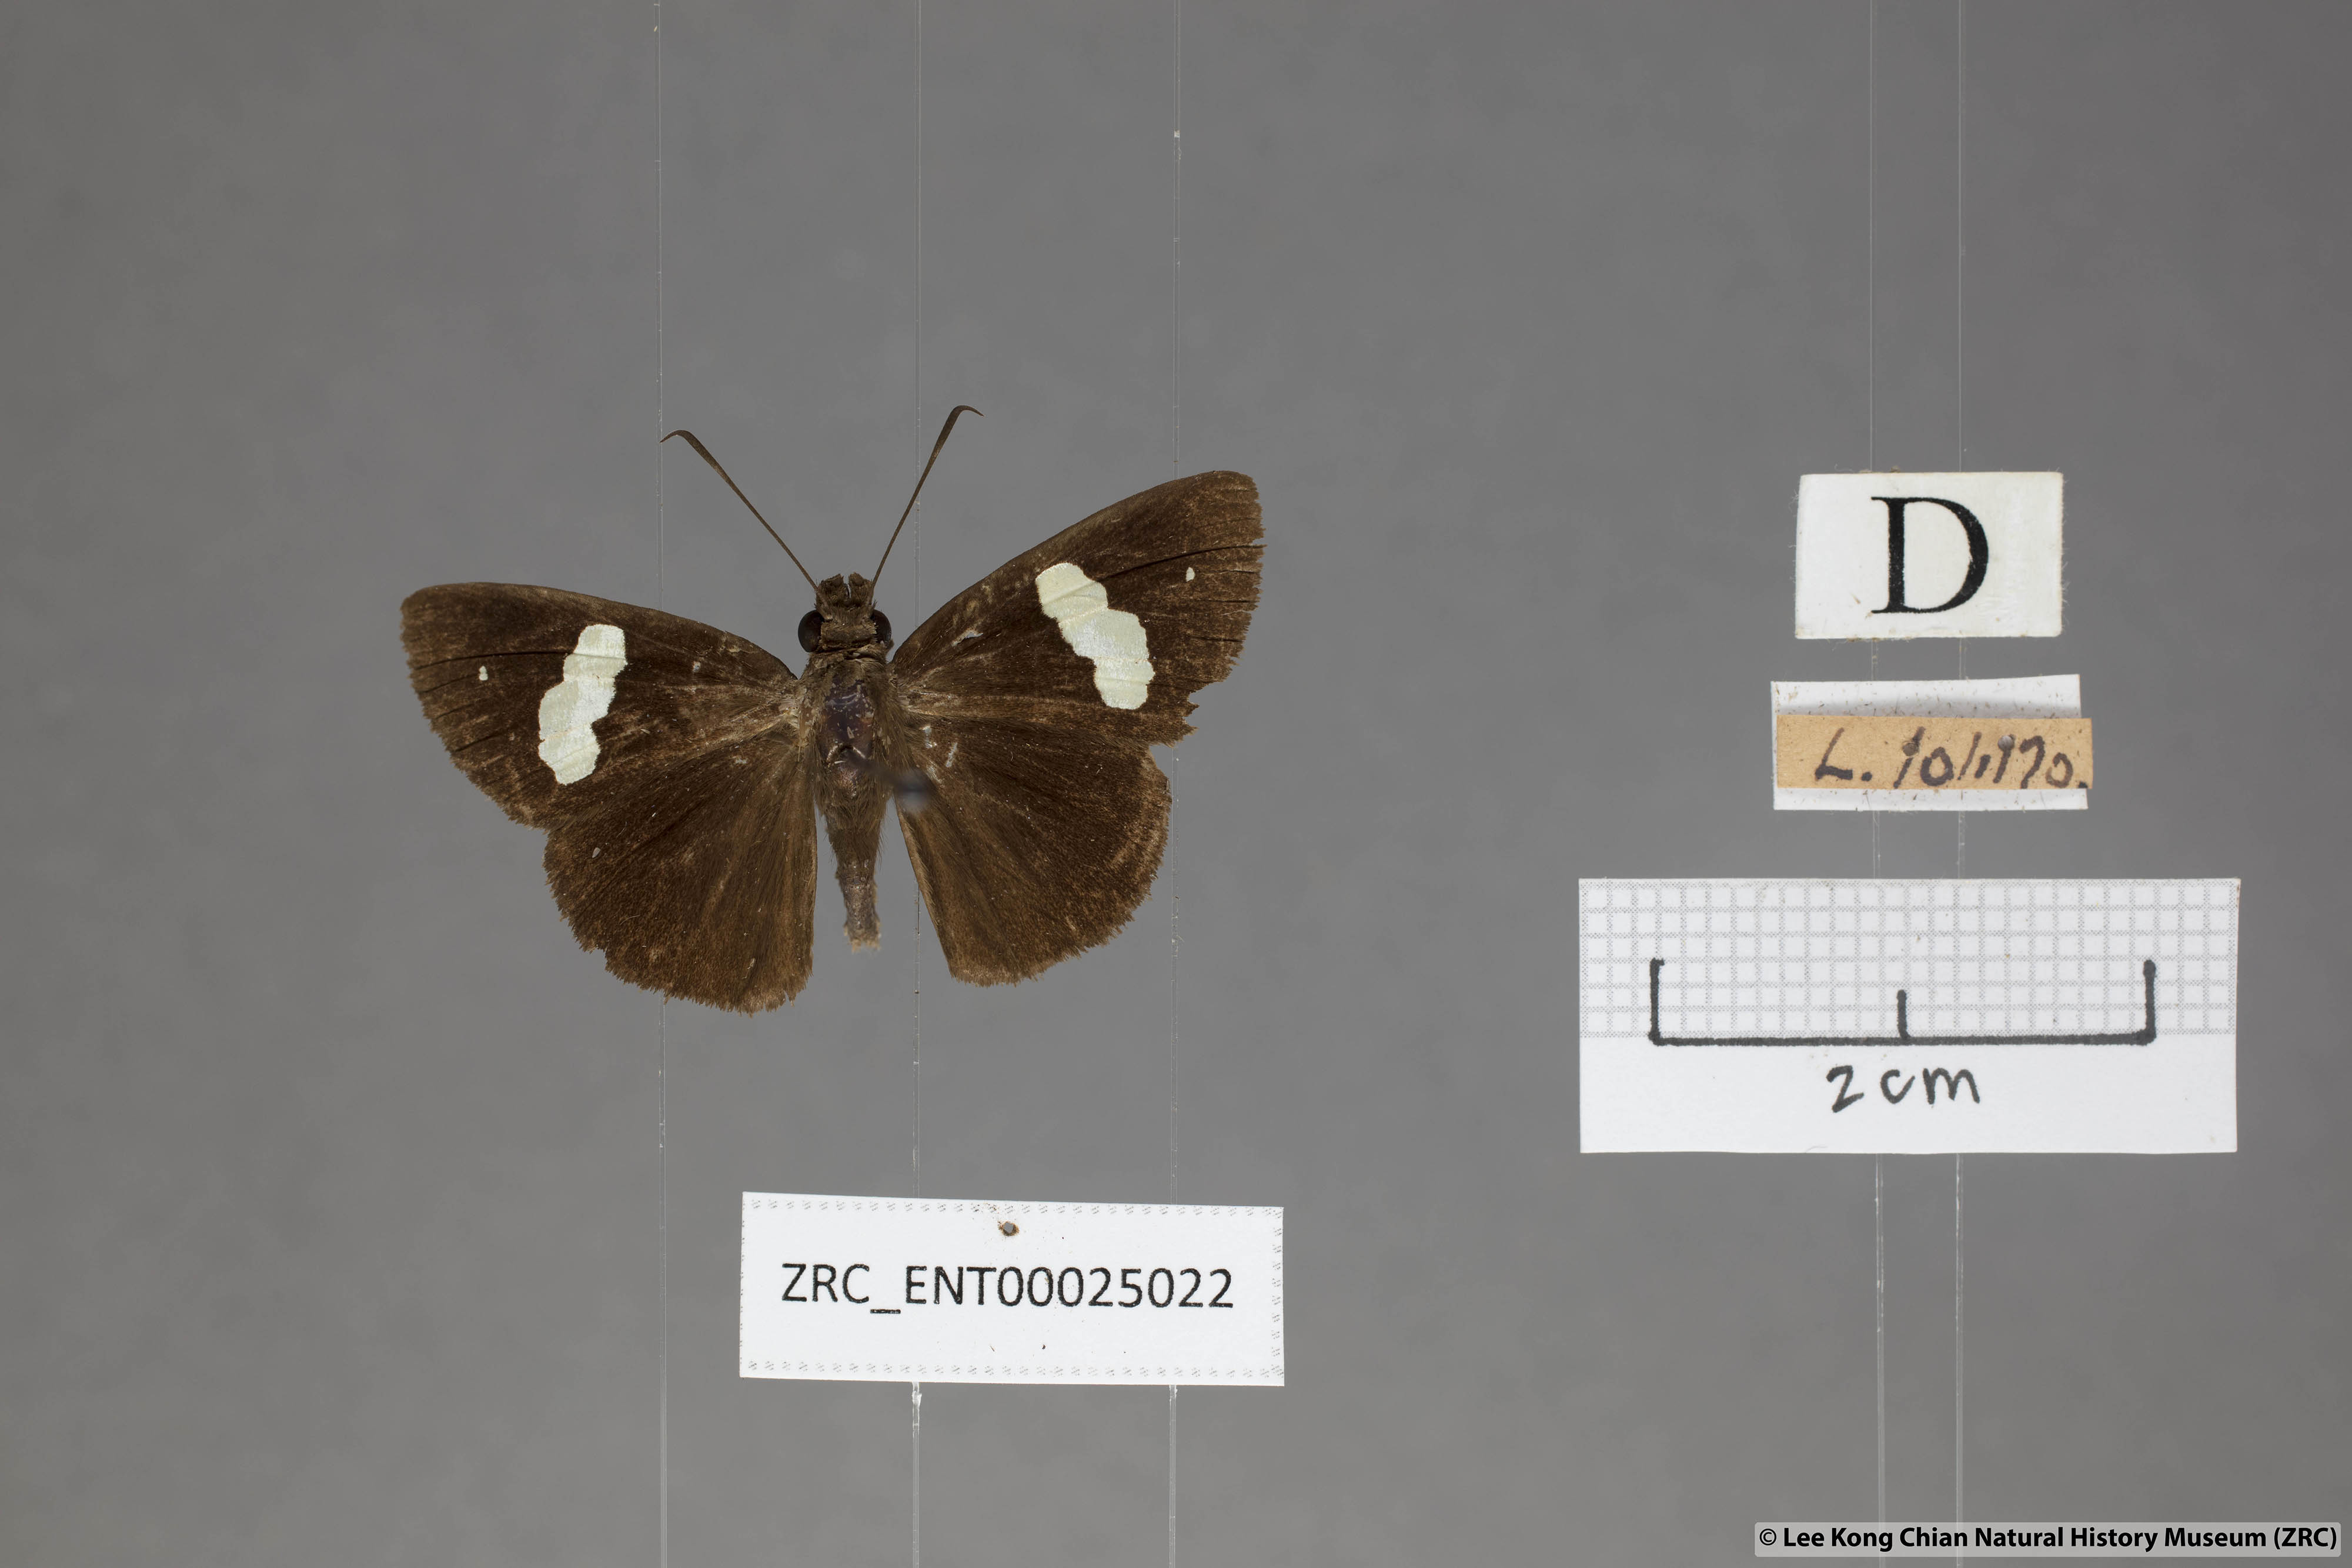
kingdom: Animalia
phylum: Arthropoda
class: Insecta
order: Lepidoptera
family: Hesperiidae
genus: Notocrypta
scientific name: Notocrypta paralysos
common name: Common banded demon
